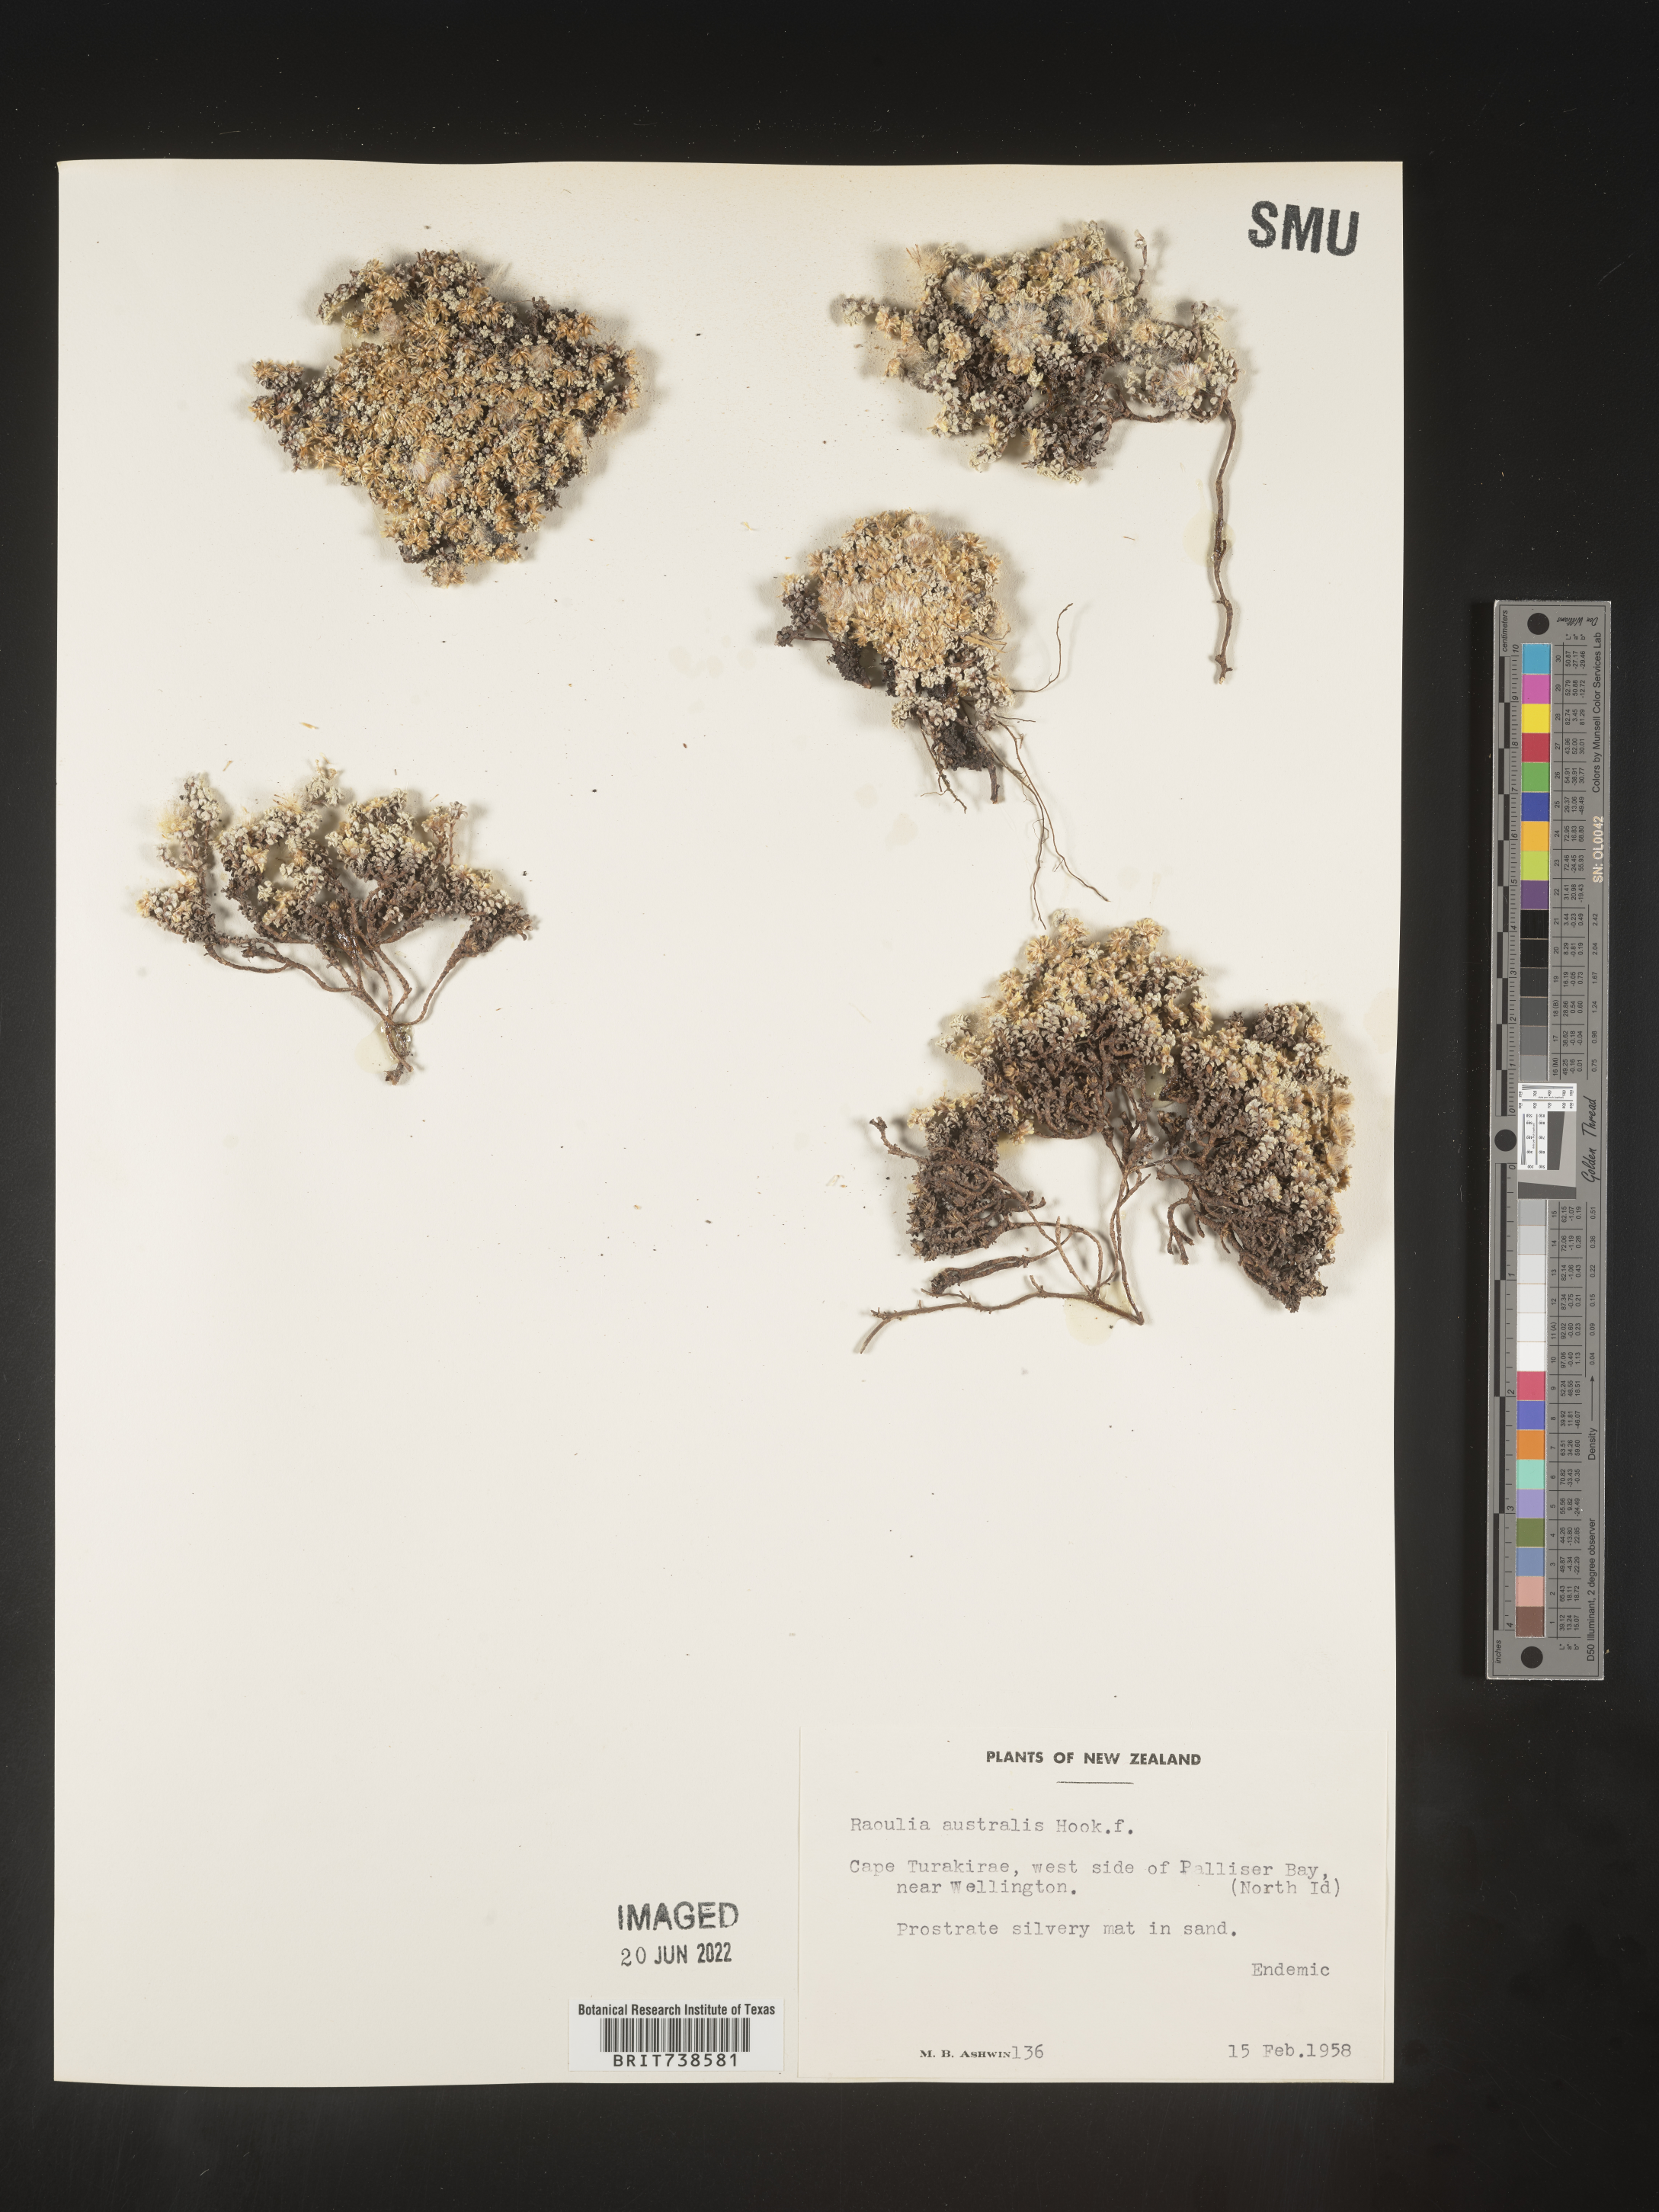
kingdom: Plantae
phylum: Tracheophyta
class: Magnoliopsida
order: Asterales
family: Asteraceae
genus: Raoulia
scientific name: Raoulia
